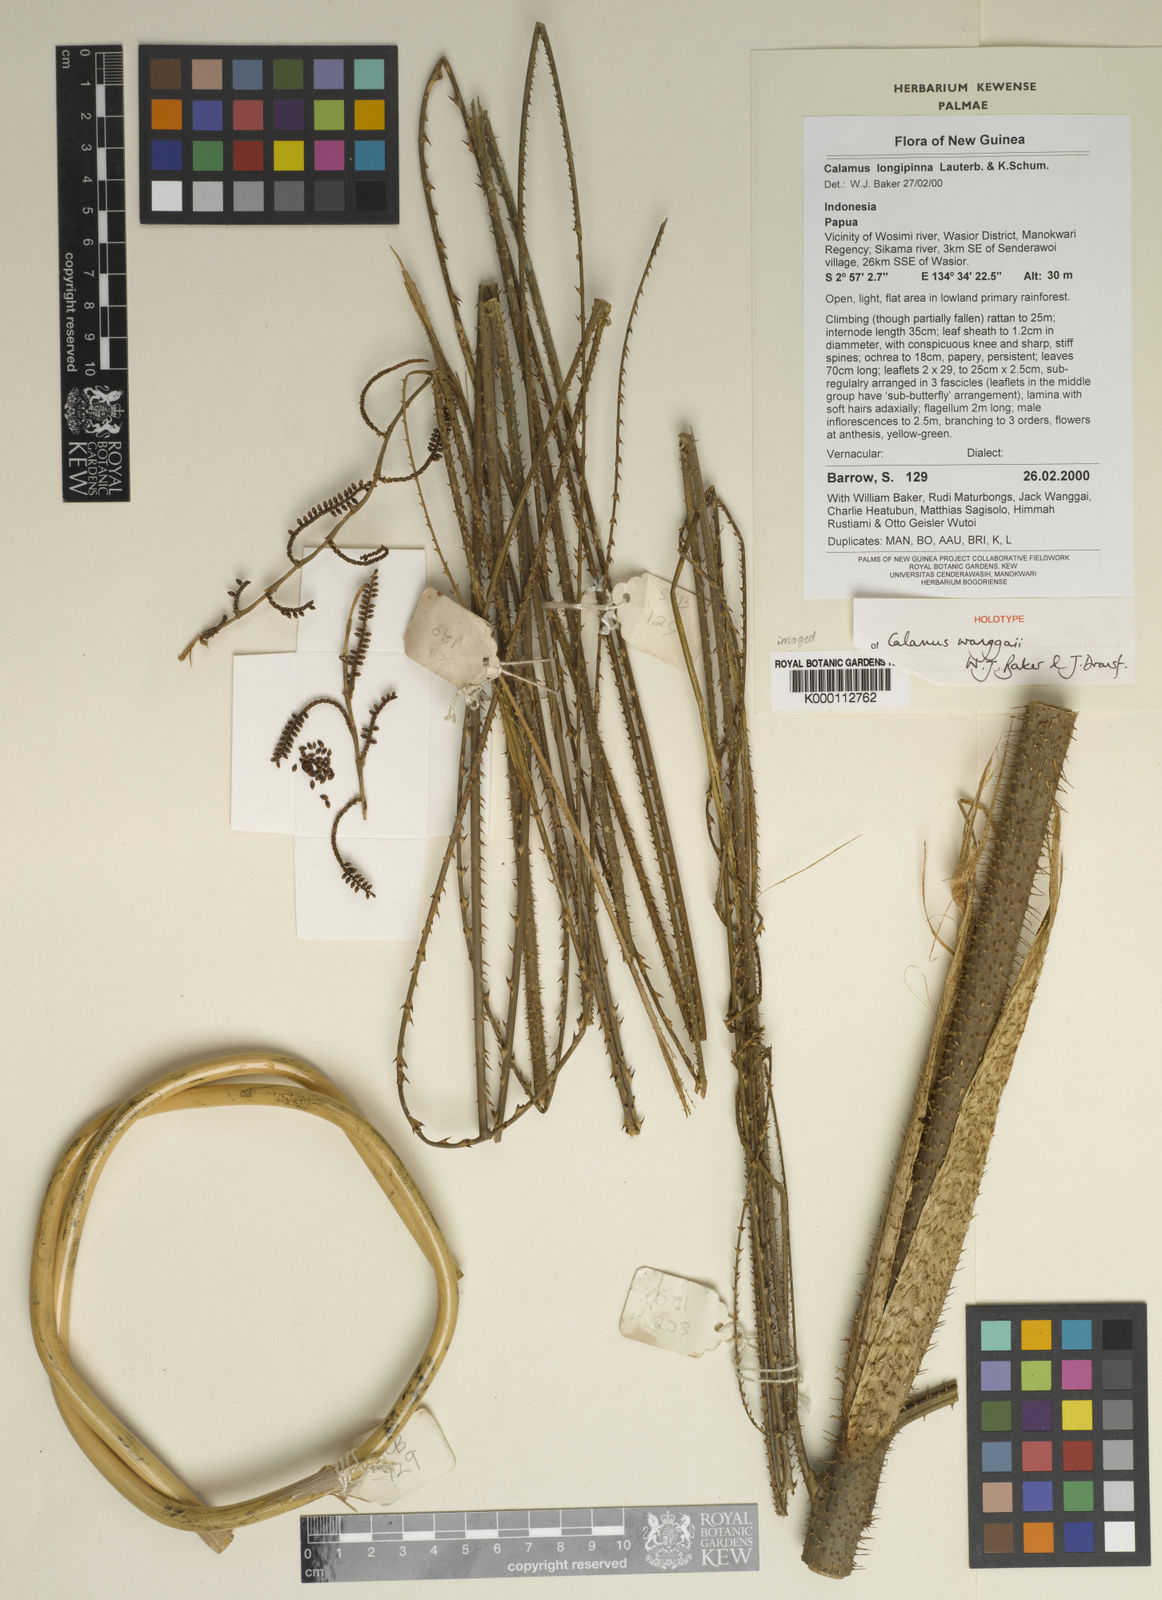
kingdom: Plantae
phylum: Tracheophyta
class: Liliopsida
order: Arecales
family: Arecaceae
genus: Calamus
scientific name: Calamus wanggaii
